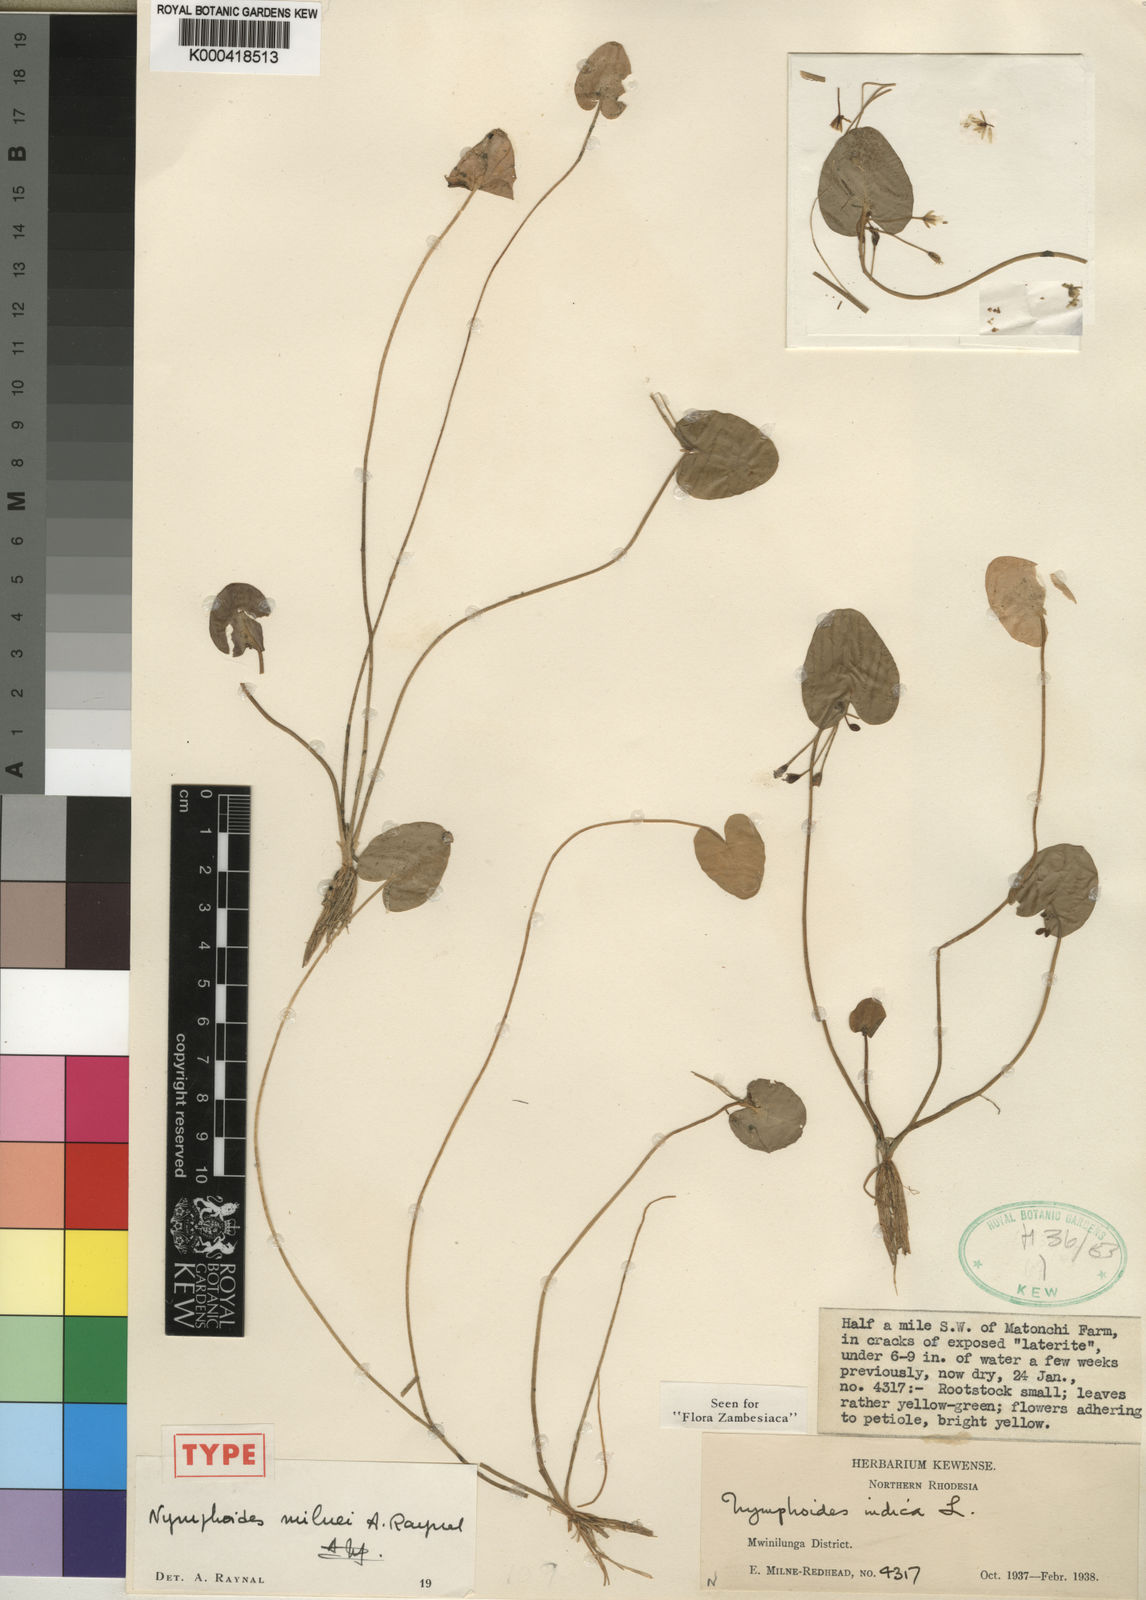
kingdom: Plantae
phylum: Tracheophyta
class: Magnoliopsida
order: Asterales
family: Menyanthaceae
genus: Nymphoides
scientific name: Nymphoides milnei
